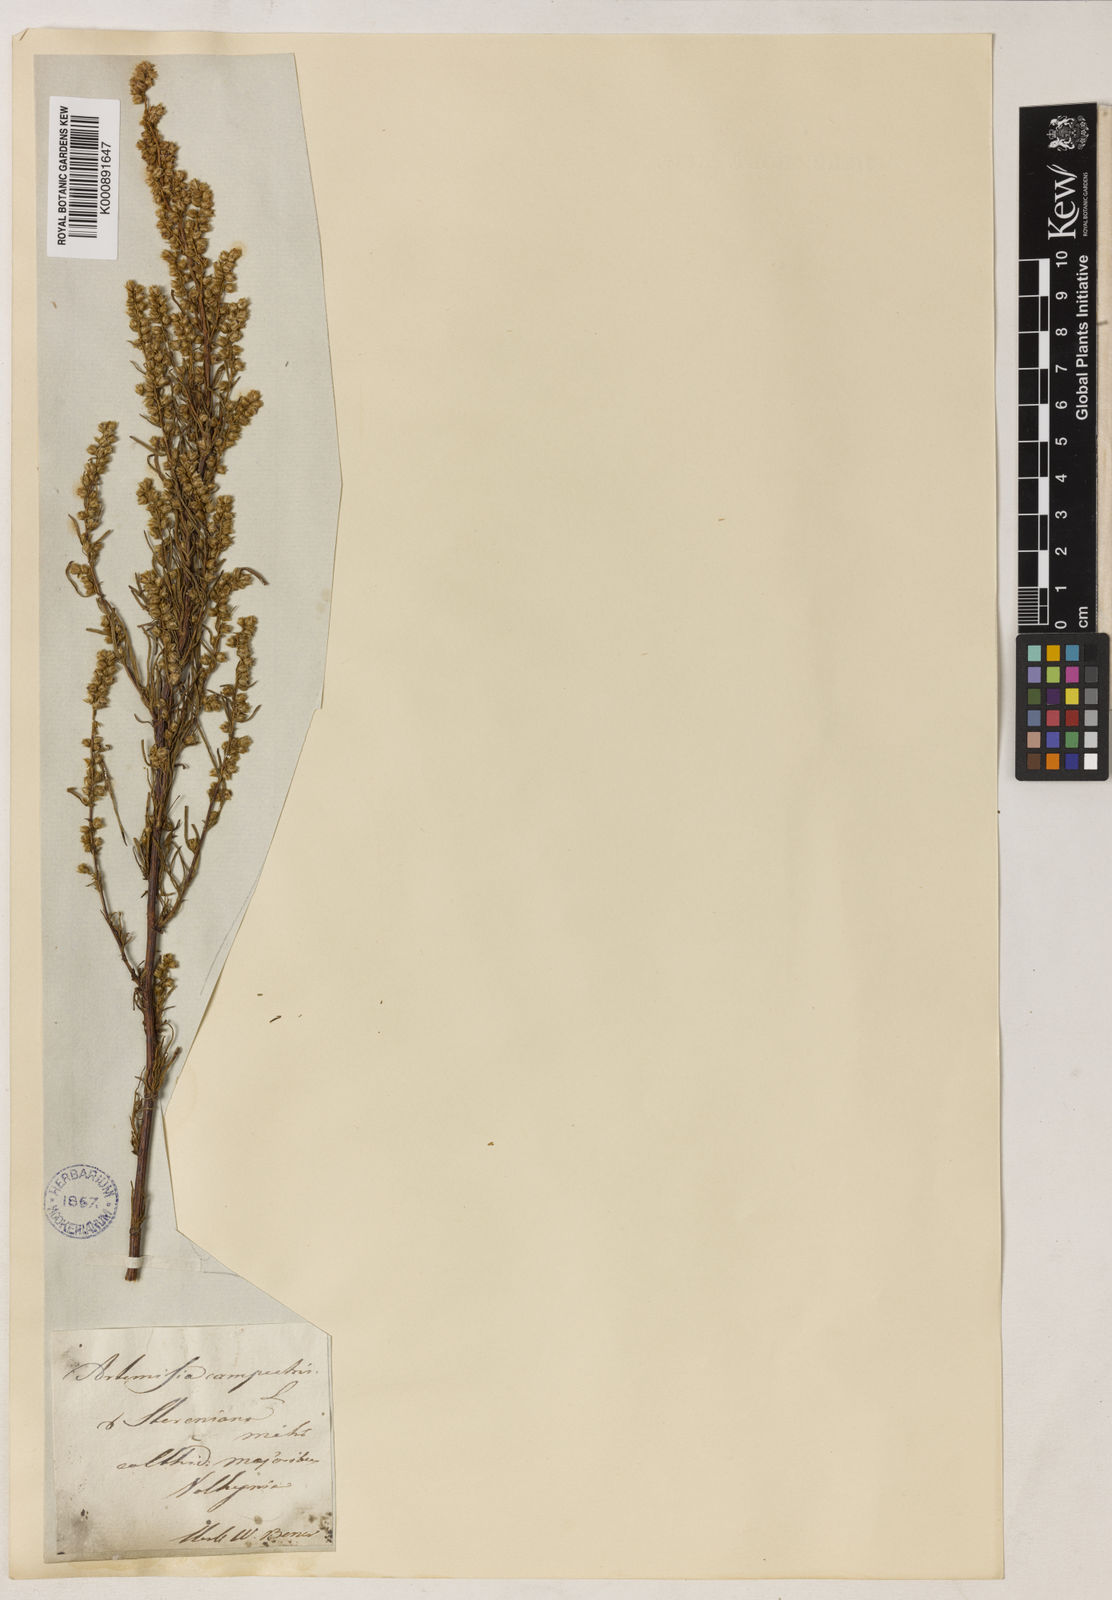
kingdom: Plantae
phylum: Tracheophyta
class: Magnoliopsida
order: Asterales
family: Asteraceae
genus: Artemisia
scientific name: Artemisia
